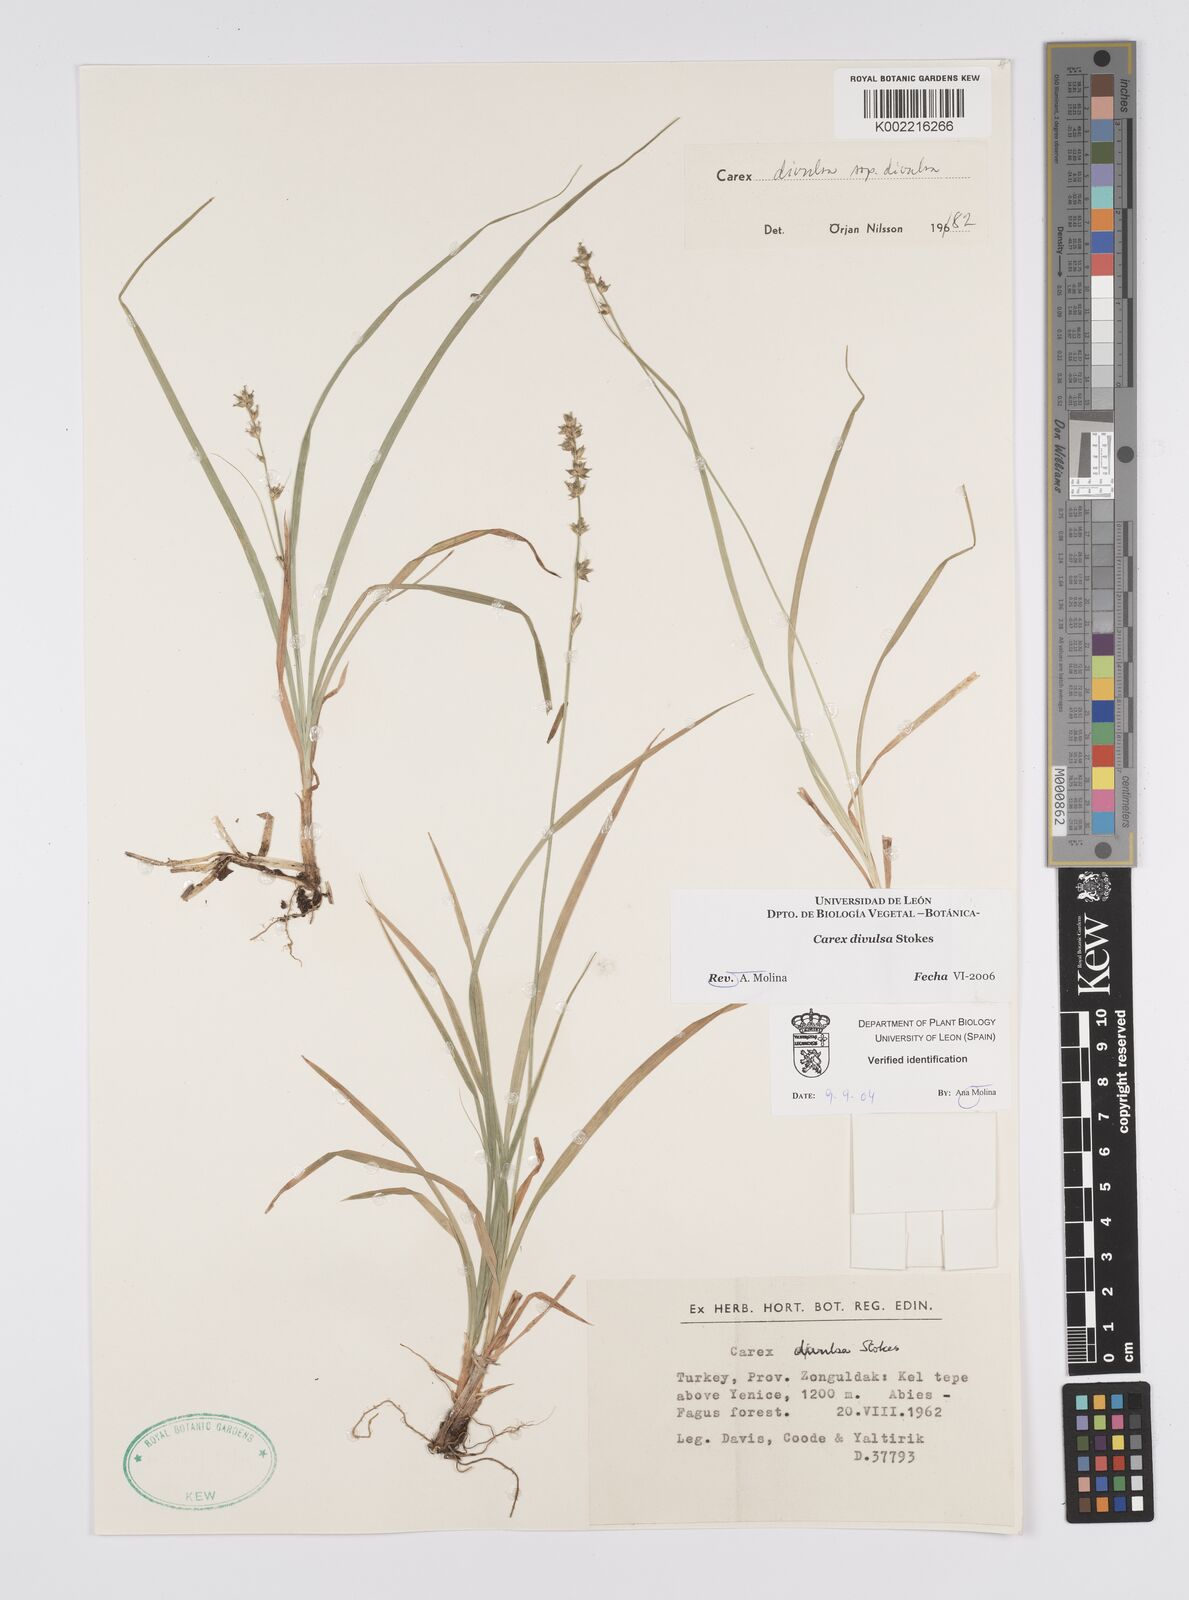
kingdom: Plantae
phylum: Tracheophyta
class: Liliopsida
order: Poales
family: Cyperaceae
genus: Carex
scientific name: Carex divulsa
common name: Grassland sedge
